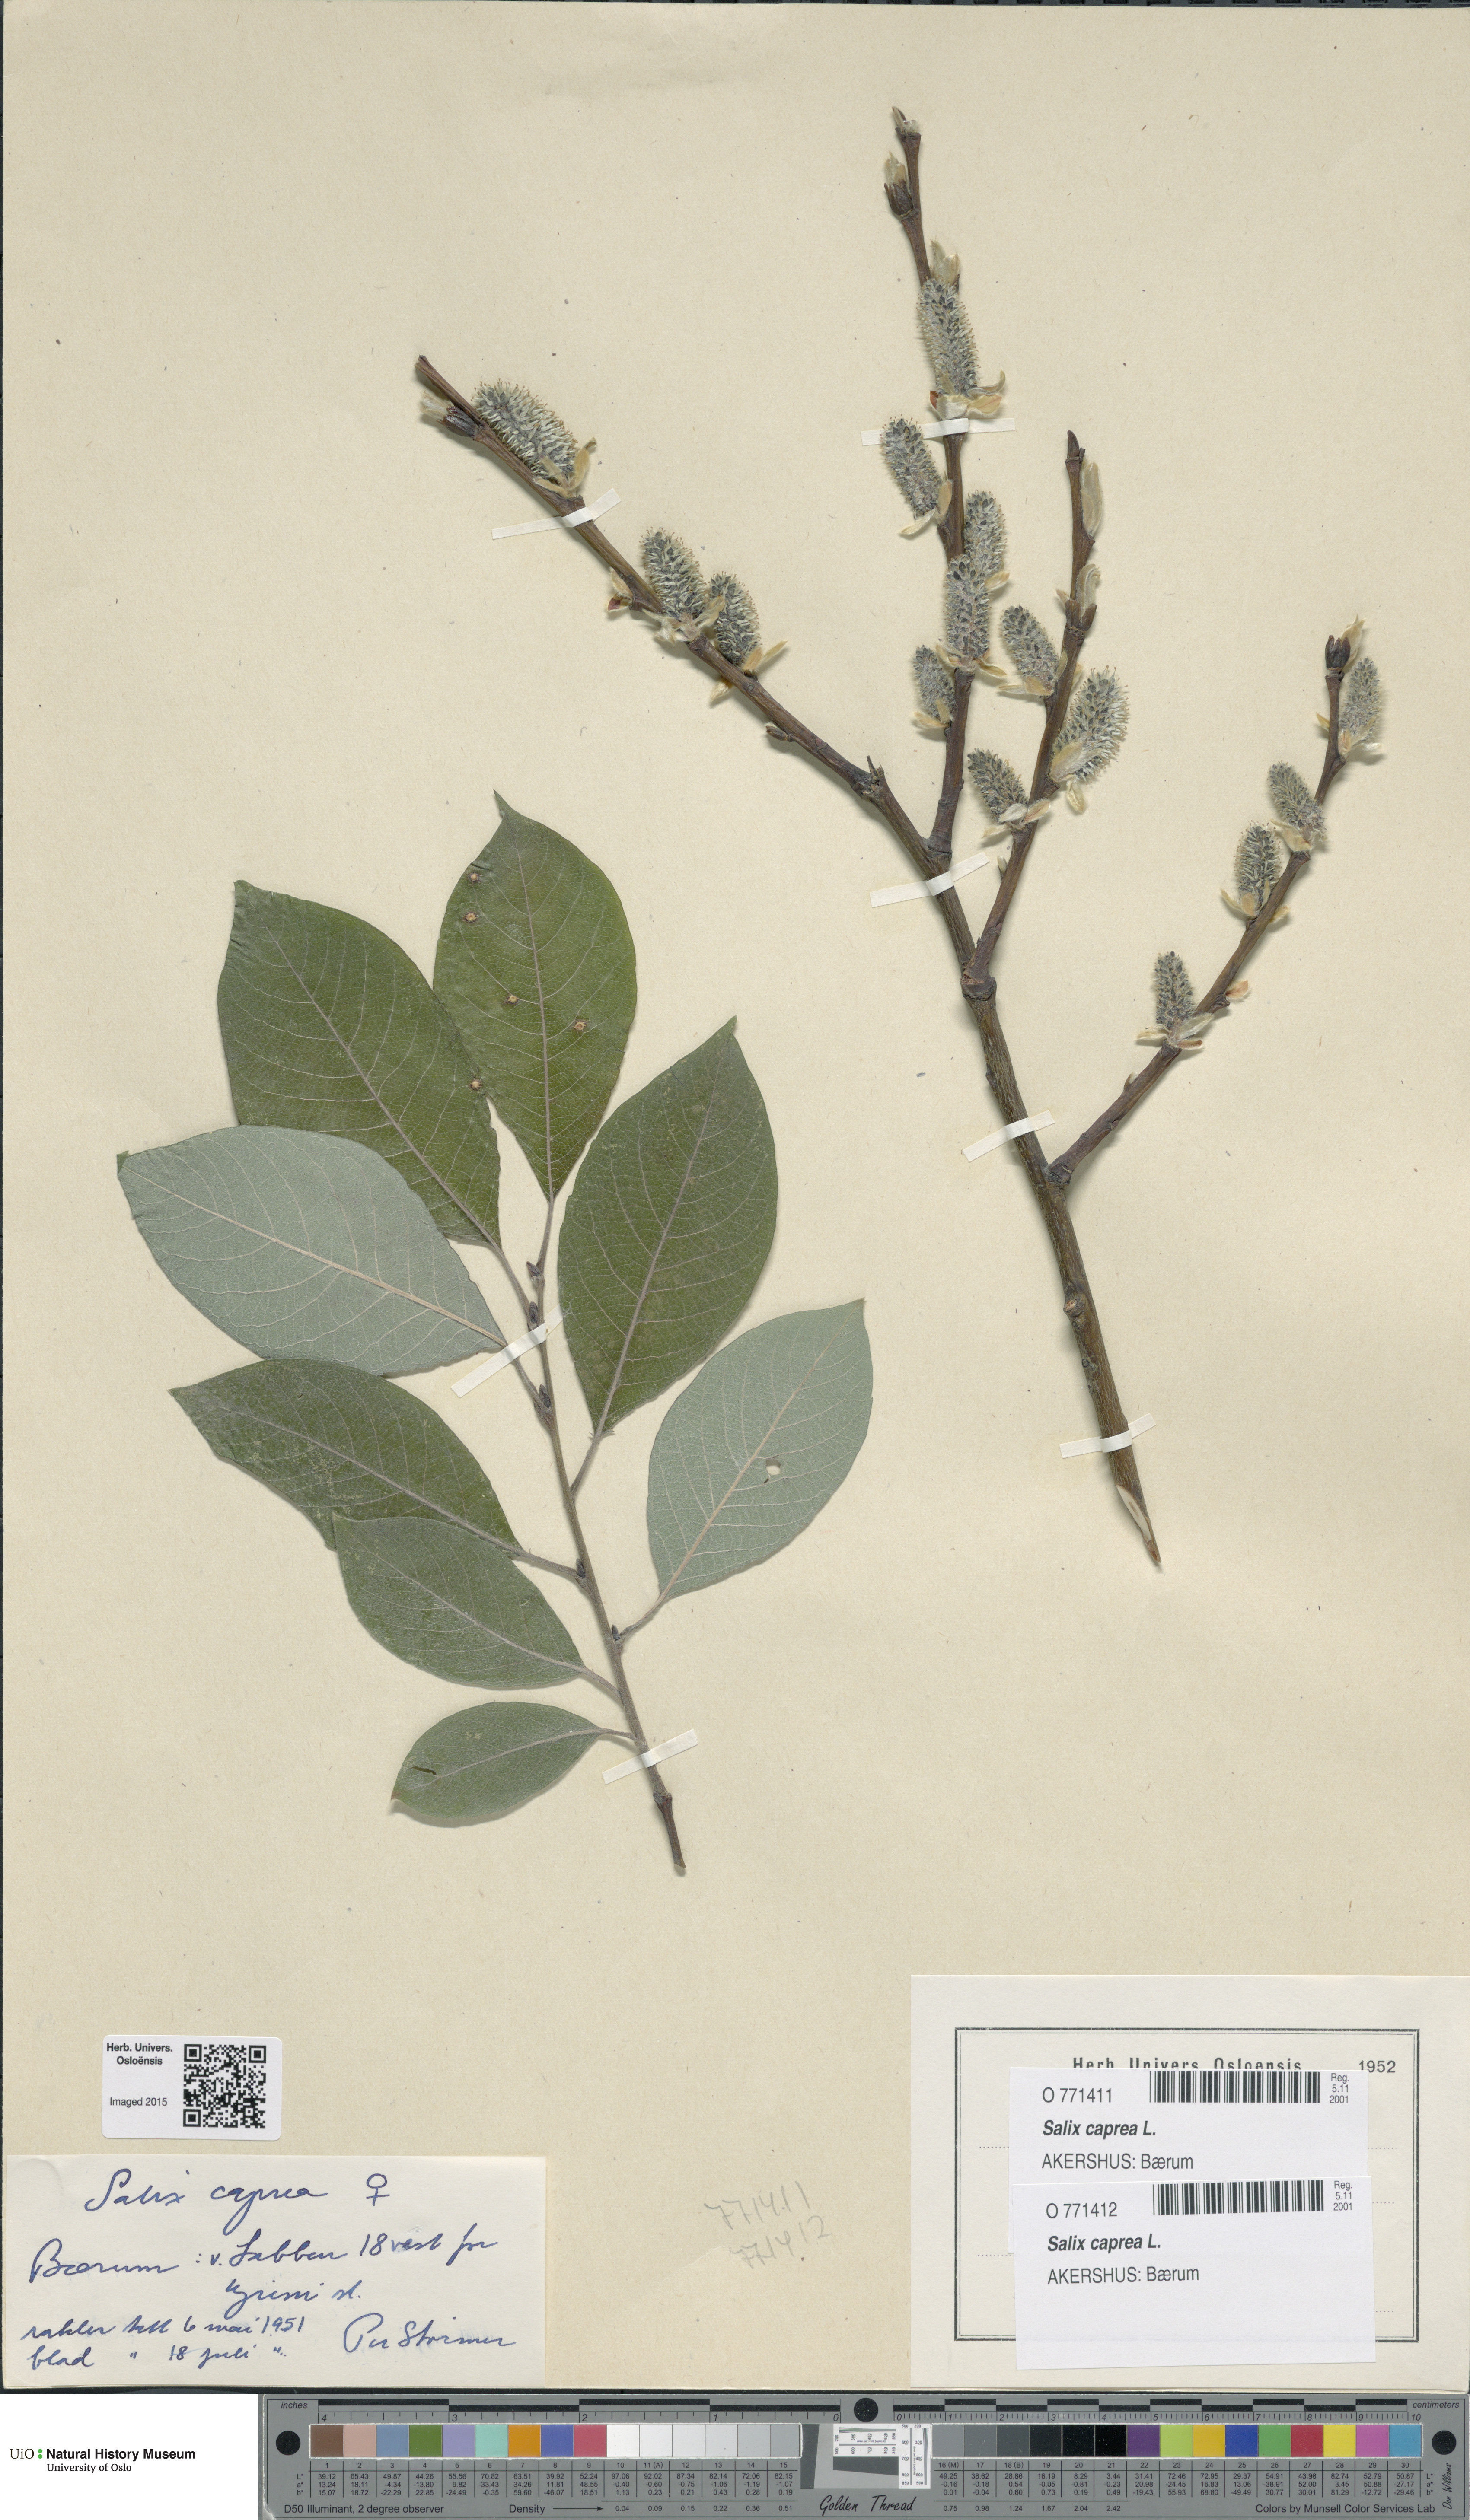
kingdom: Plantae
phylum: Tracheophyta
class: Magnoliopsida
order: Malpighiales
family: Salicaceae
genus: Salix
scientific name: Salix caprea
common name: Goat willow
